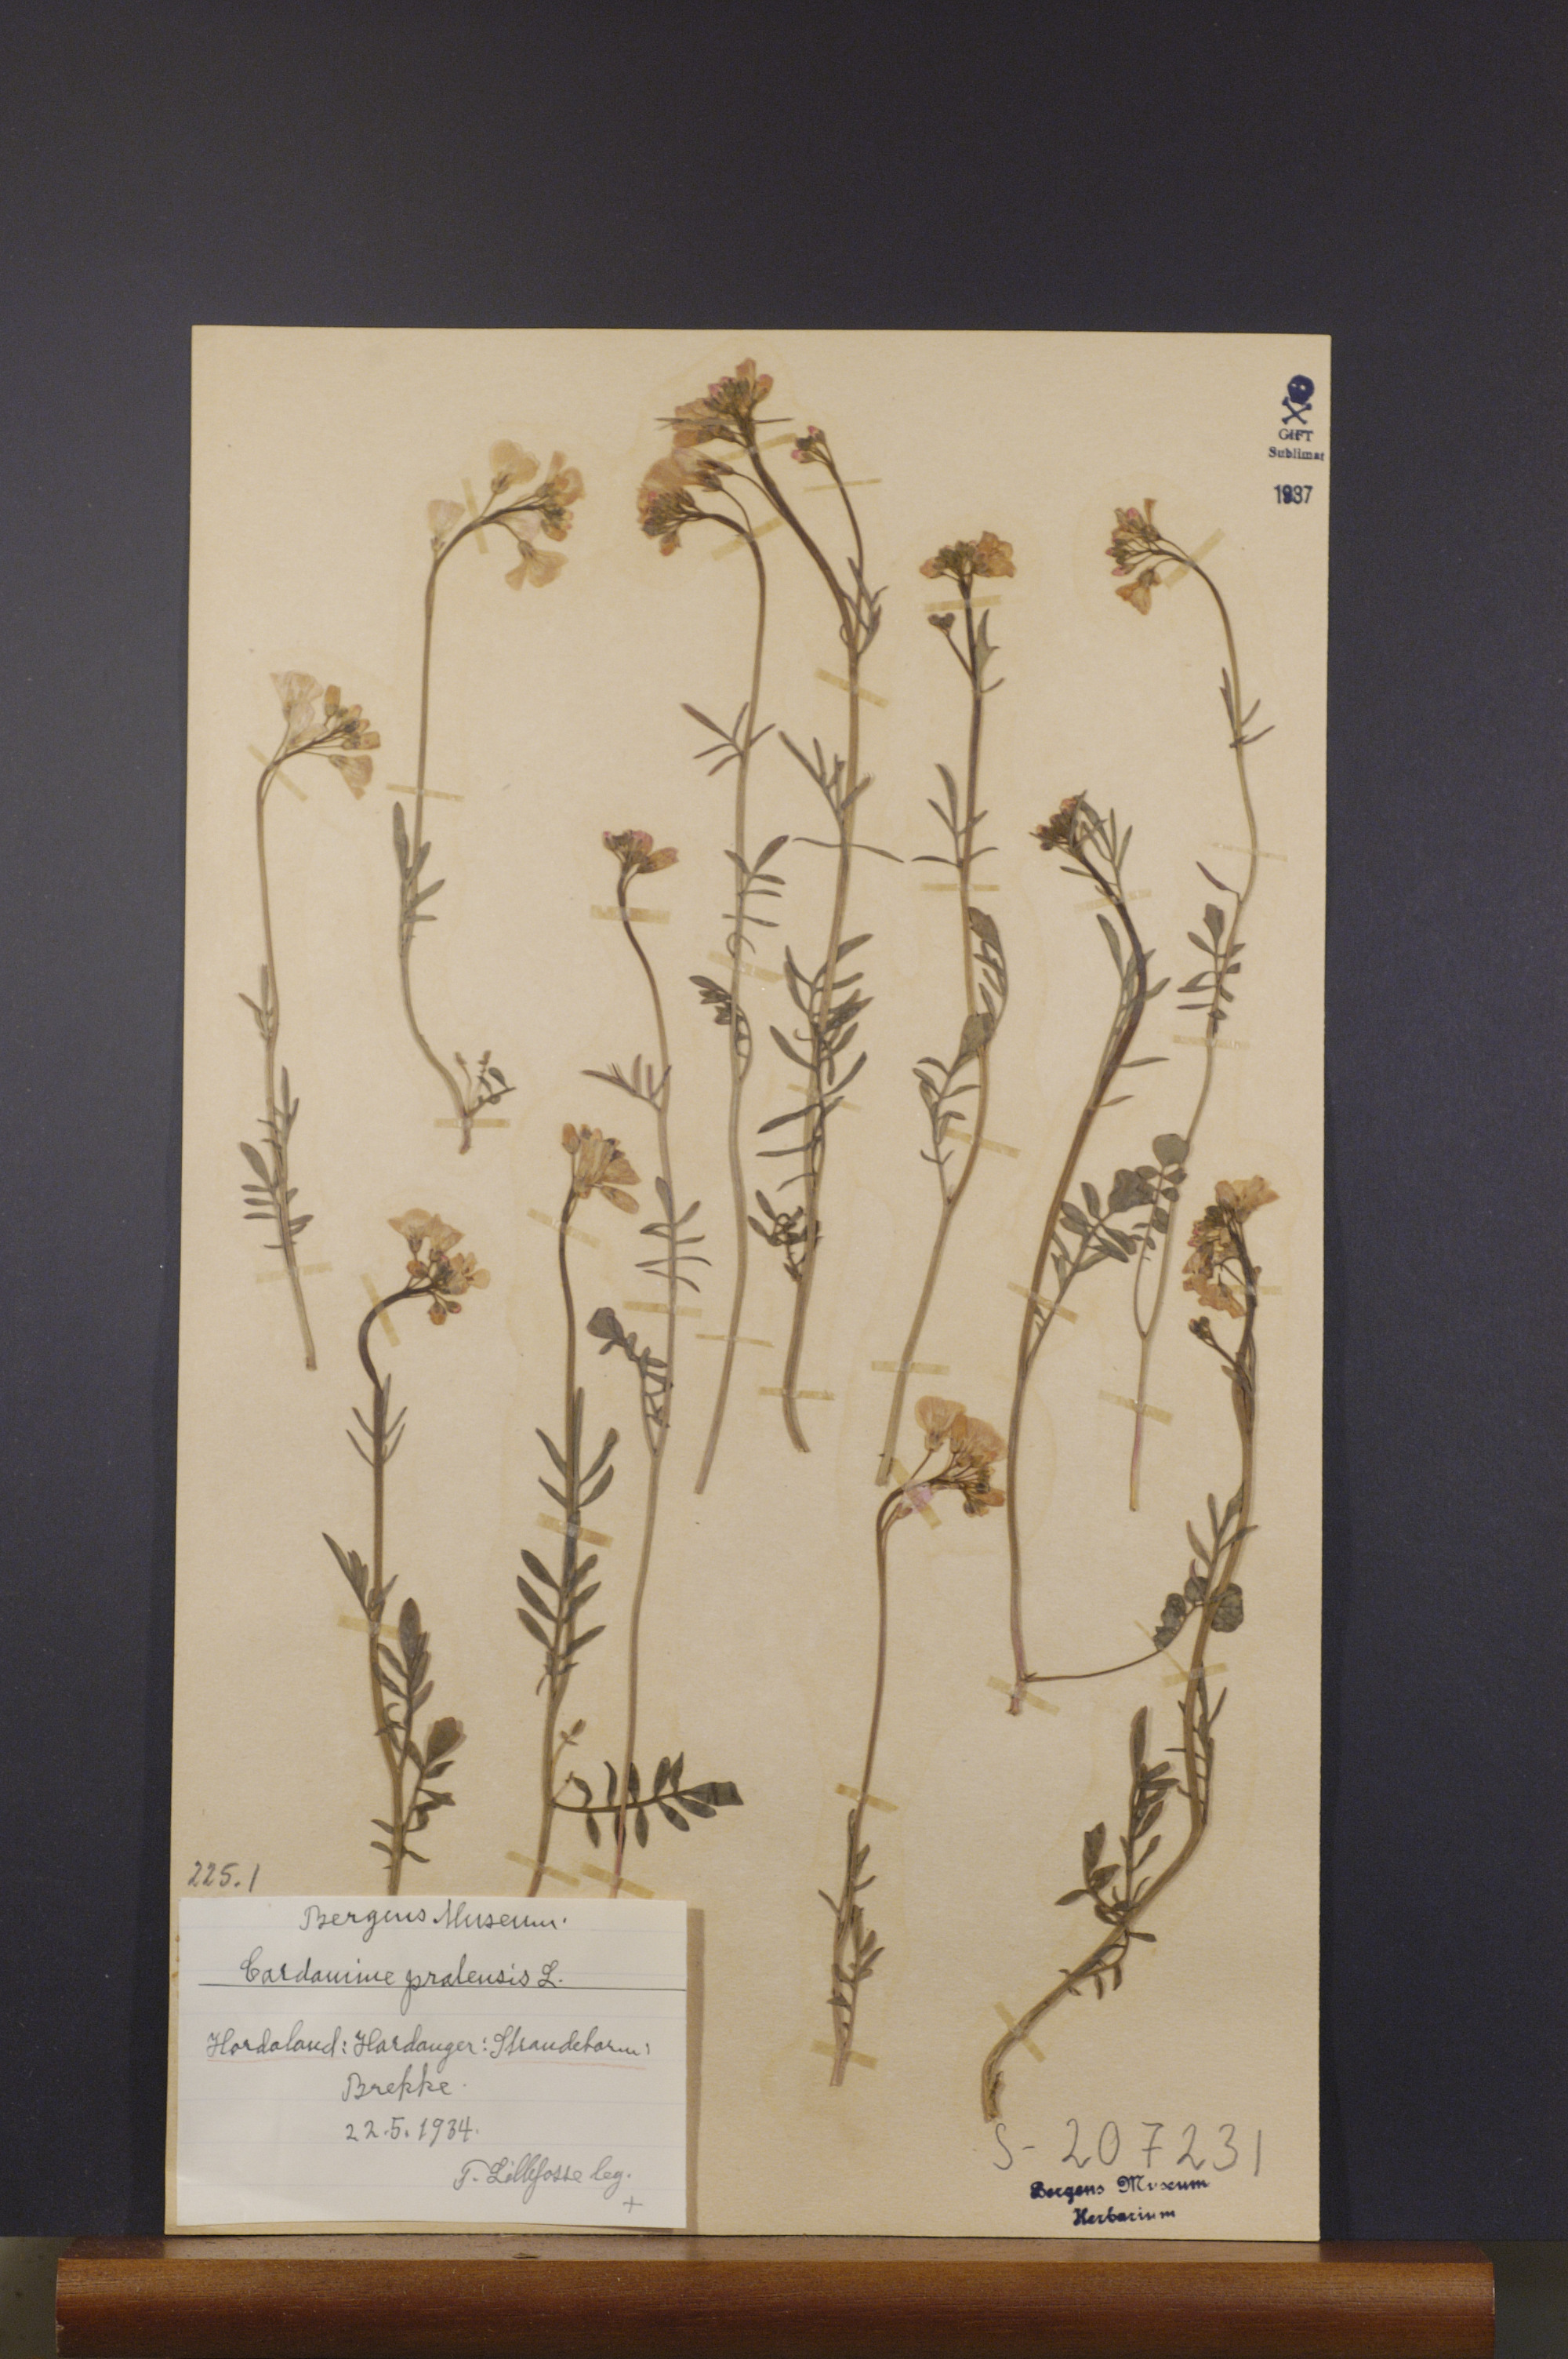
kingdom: Plantae
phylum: Tracheophyta
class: Magnoliopsida
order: Brassicales
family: Brassicaceae
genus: Cardamine
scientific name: Cardamine pratensis
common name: Cuckoo flower
